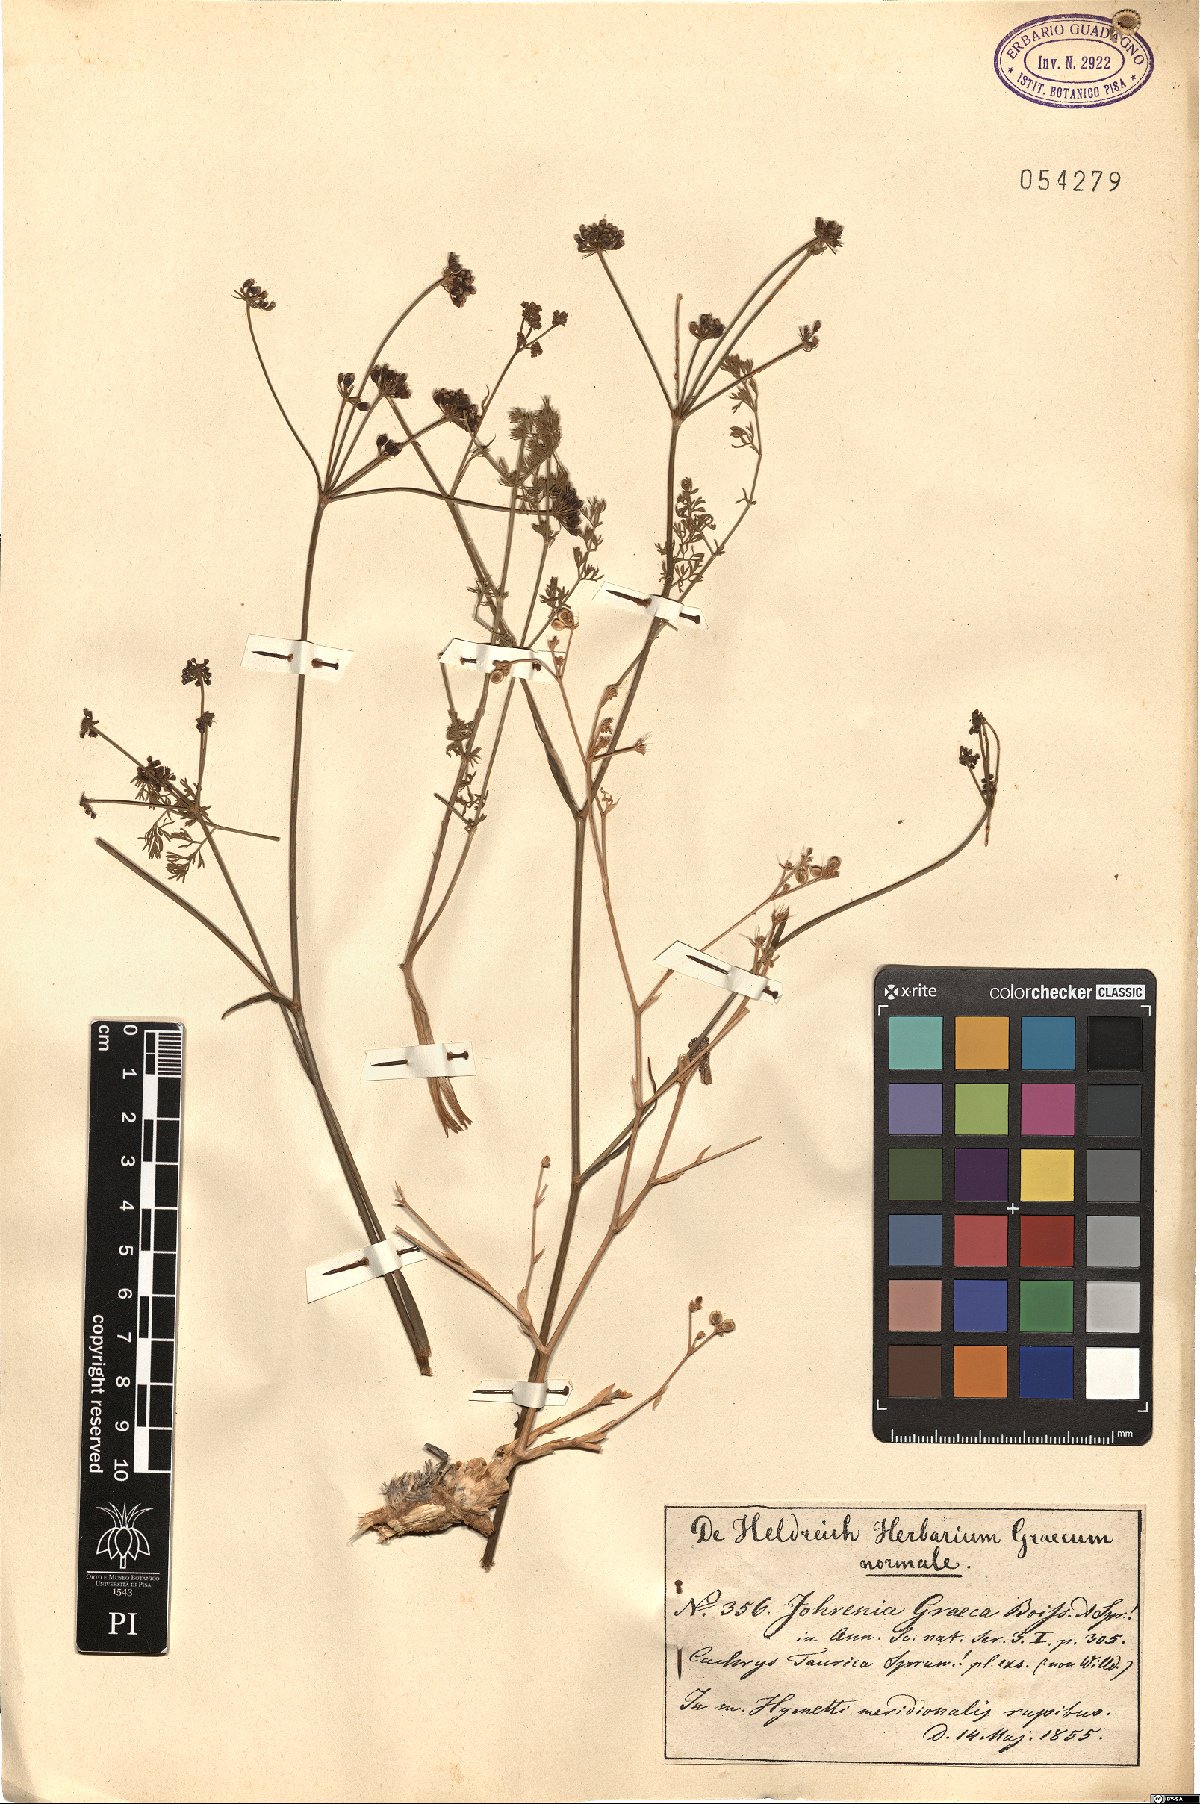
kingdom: Plantae
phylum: Tracheophyta
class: Magnoliopsida
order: Apiales
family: Apiaceae
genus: Johrenia
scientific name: Johrenia distans
